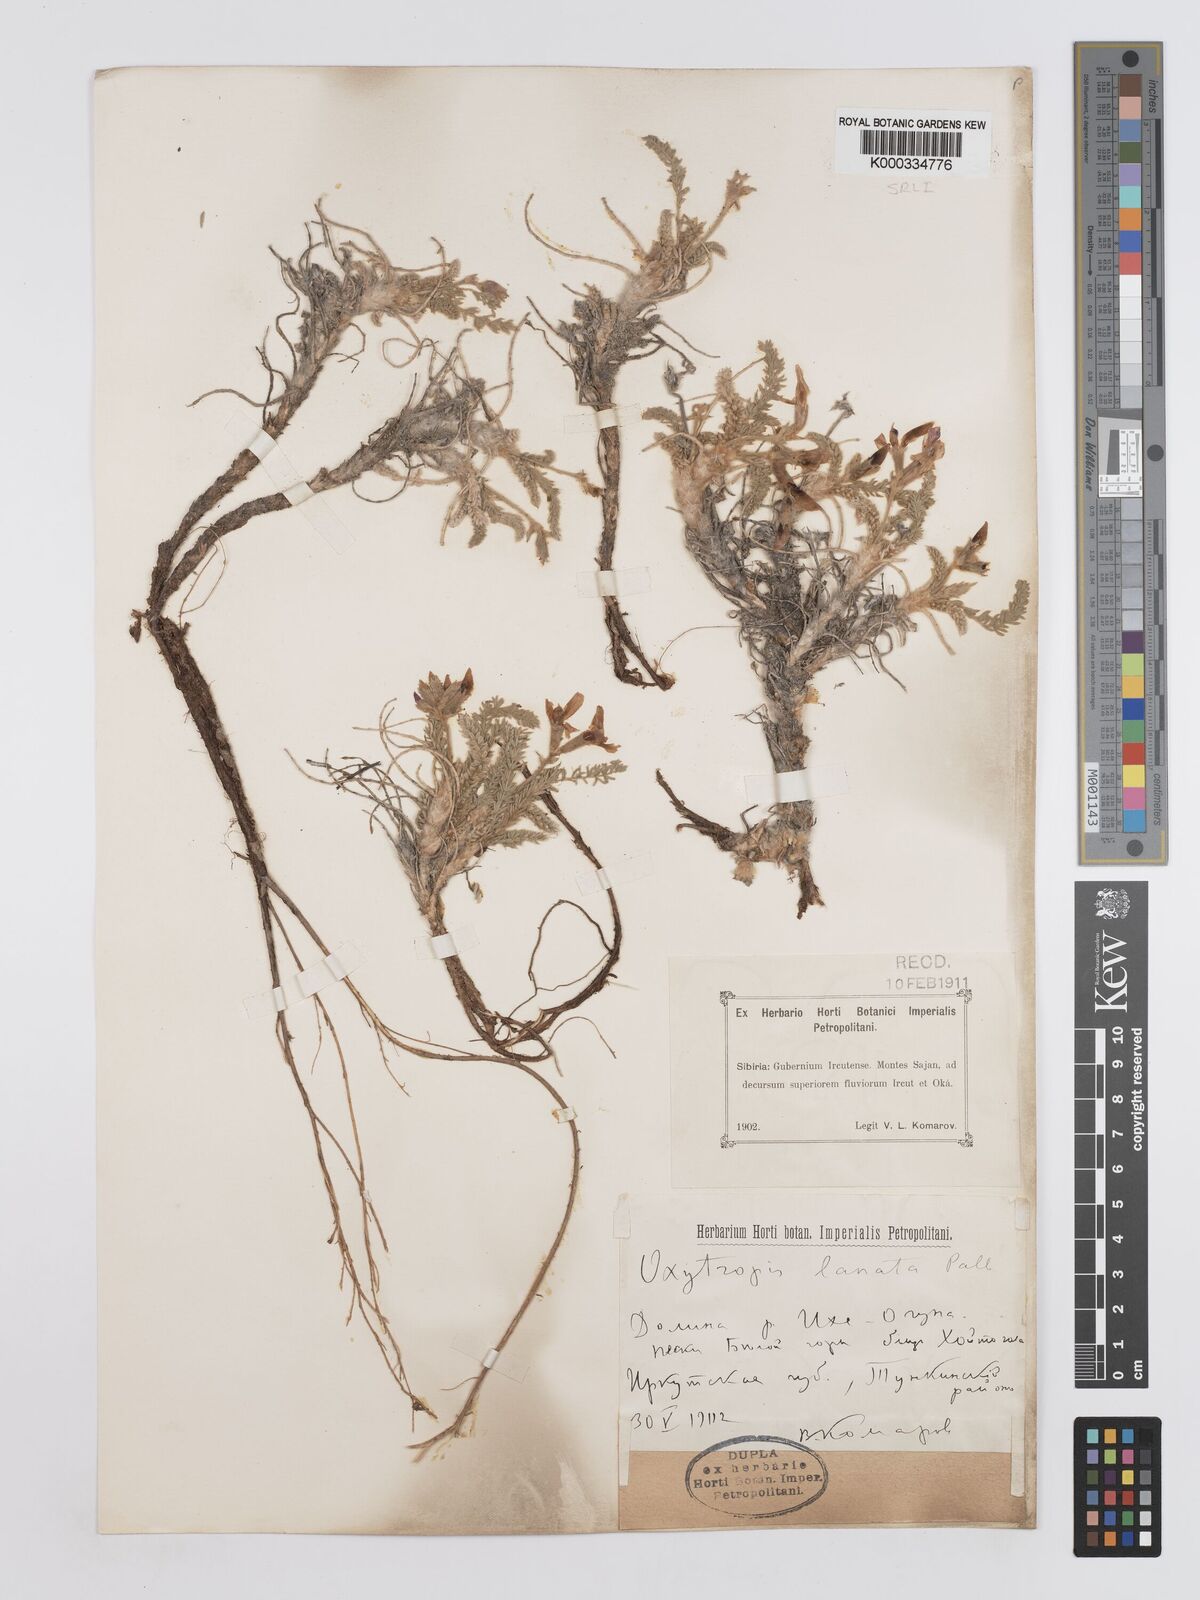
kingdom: Plantae
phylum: Tracheophyta
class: Magnoliopsida
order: Fabales
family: Fabaceae
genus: Oxytropis
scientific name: Oxytropis lanata
